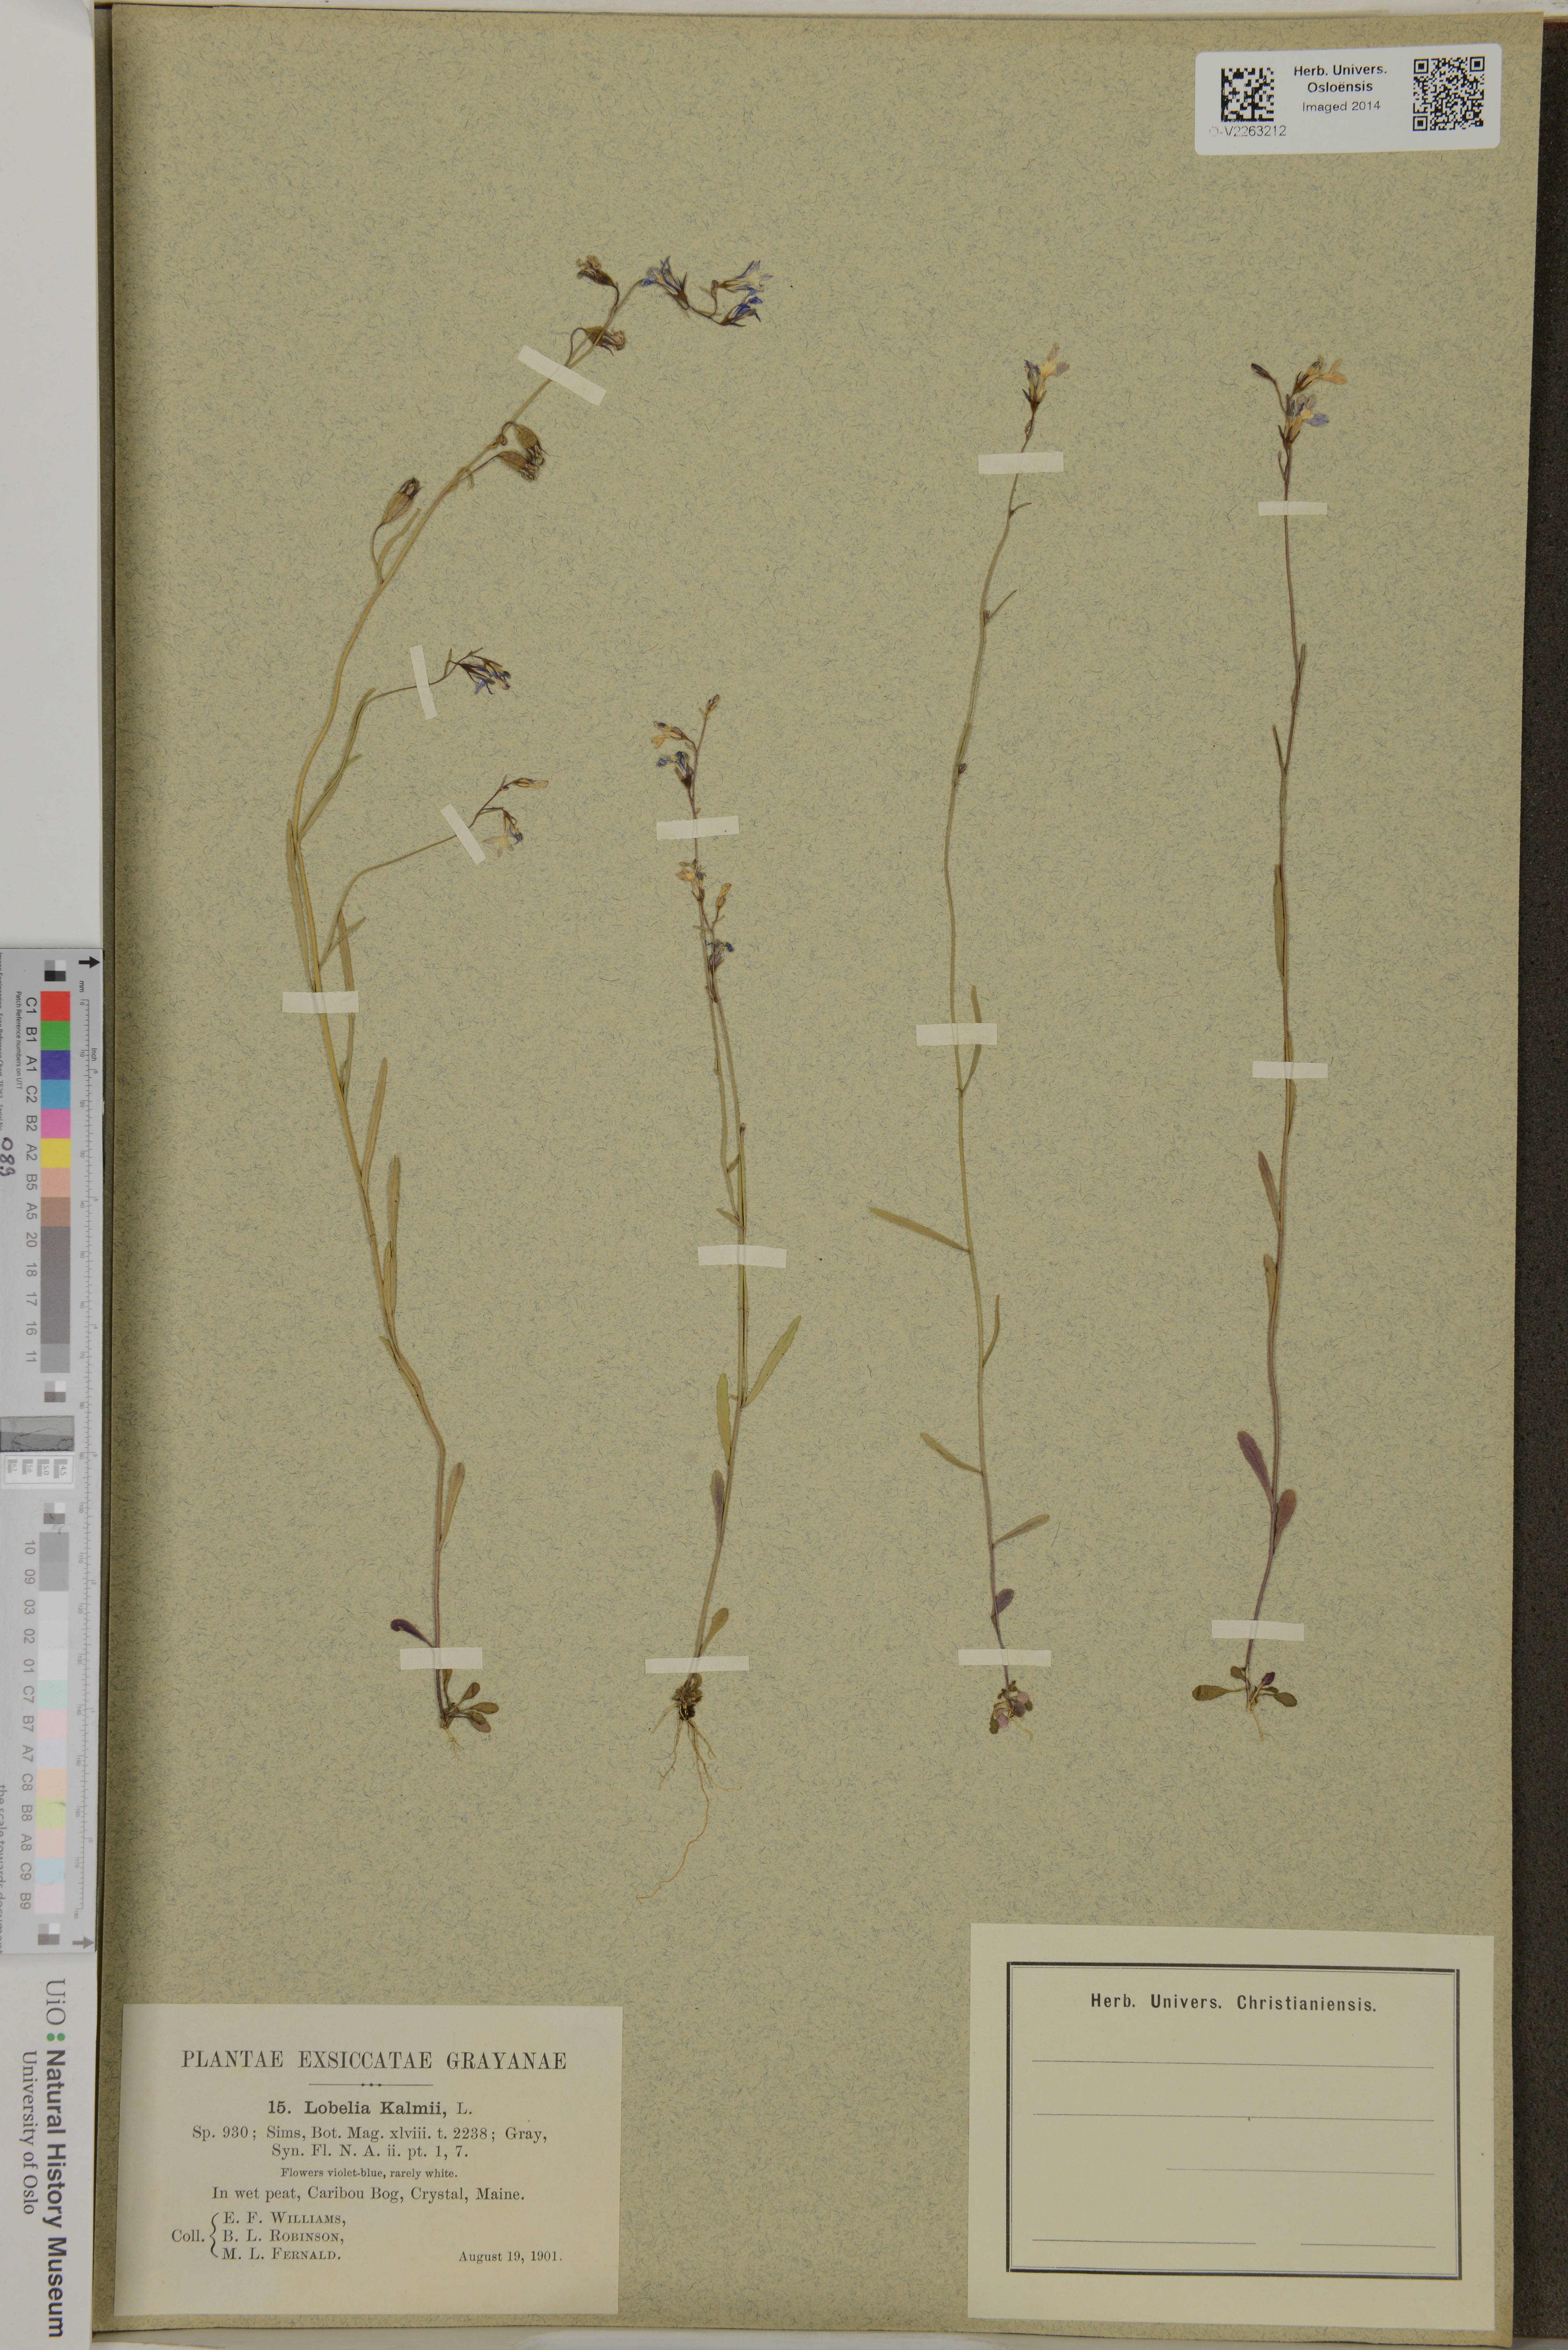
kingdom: Plantae
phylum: Tracheophyta
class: Magnoliopsida
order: Asterales
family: Campanulaceae
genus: Lobelia
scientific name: Lobelia kalmii
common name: Kalm's lobelia
